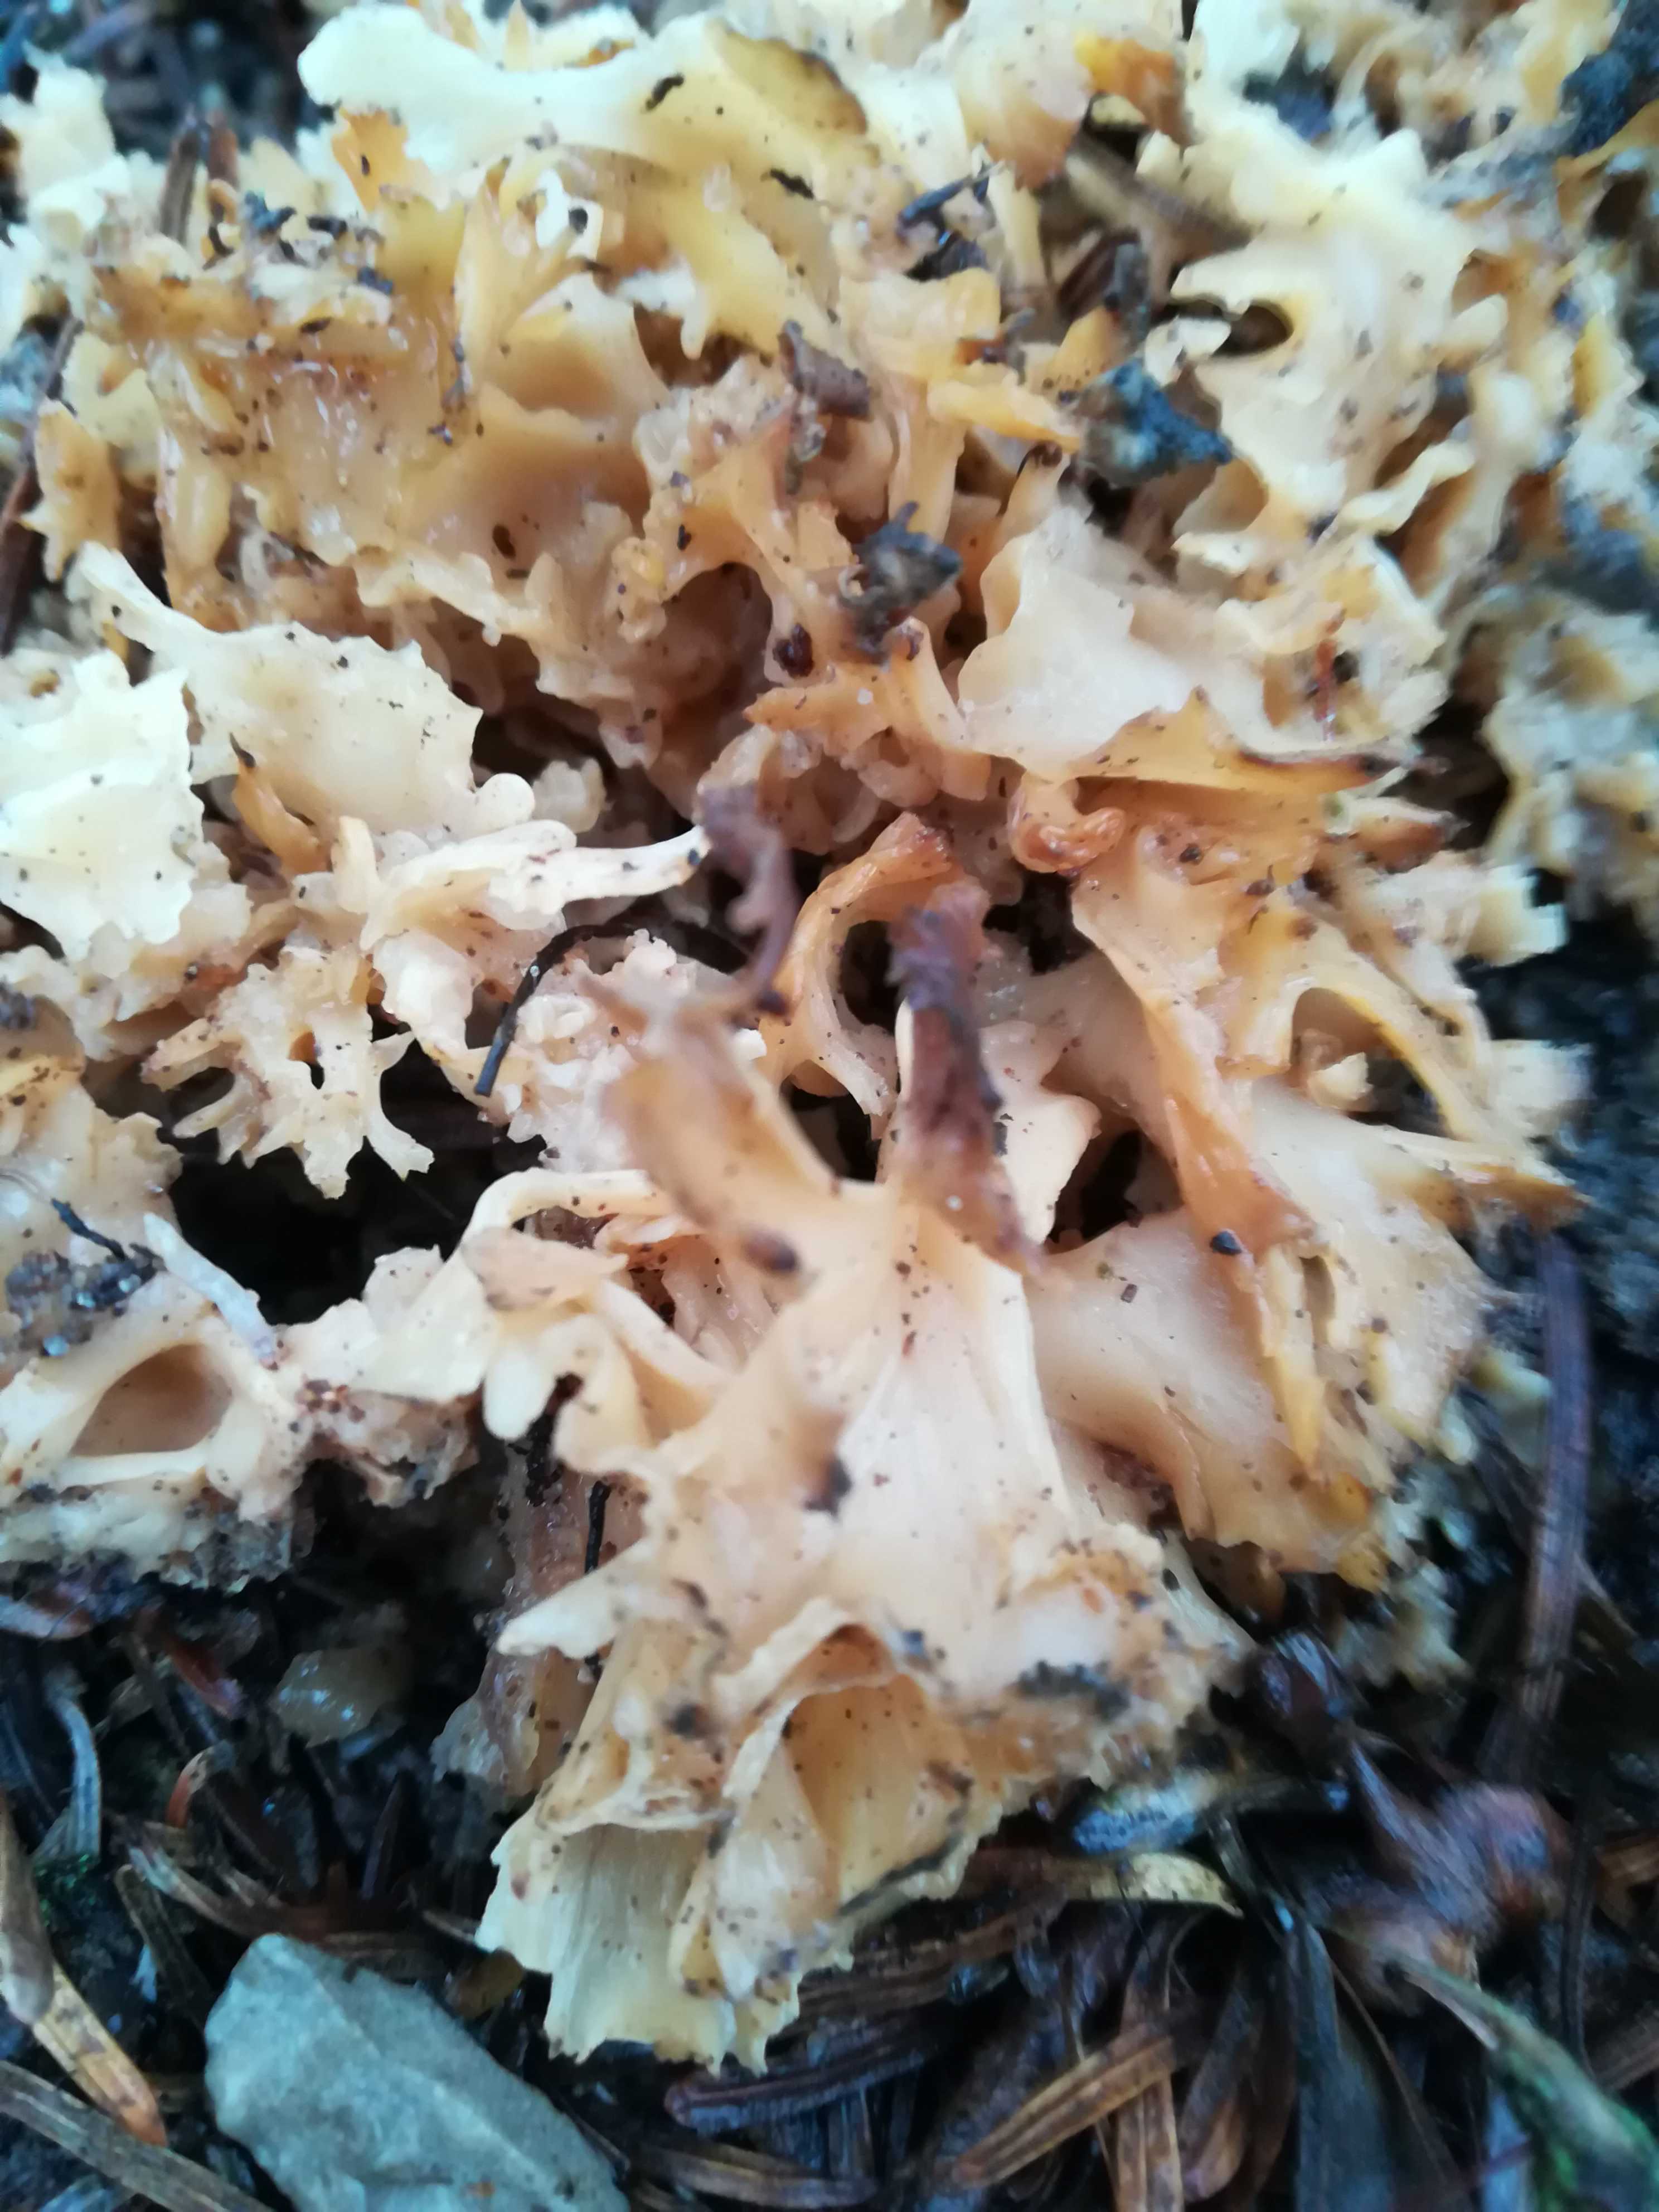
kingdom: Fungi
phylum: Basidiomycota
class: Agaricomycetes
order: Polyporales
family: Sparassidaceae
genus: Sparassis
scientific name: Sparassis crispa
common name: kruset blomkålssvamp
